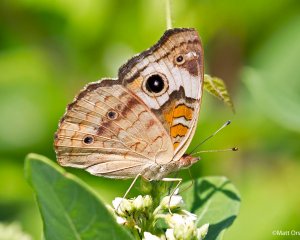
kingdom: Animalia
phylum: Arthropoda
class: Insecta
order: Lepidoptera
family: Nymphalidae
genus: Junonia
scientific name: Junonia coenia
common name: Common Buckeye
